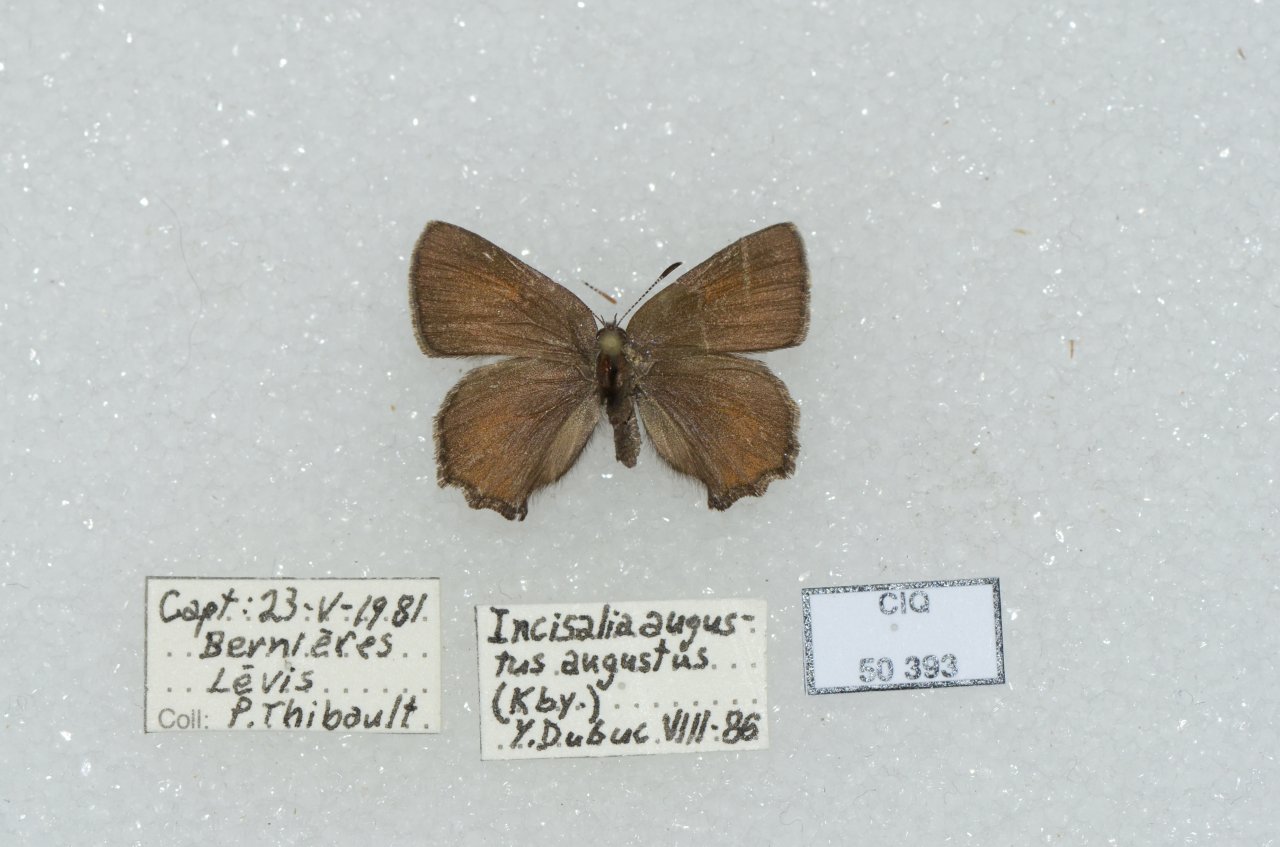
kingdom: Animalia
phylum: Arthropoda
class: Insecta
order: Lepidoptera
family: Lycaenidae
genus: Incisalia
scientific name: Incisalia irioides
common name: Brown Elfin
